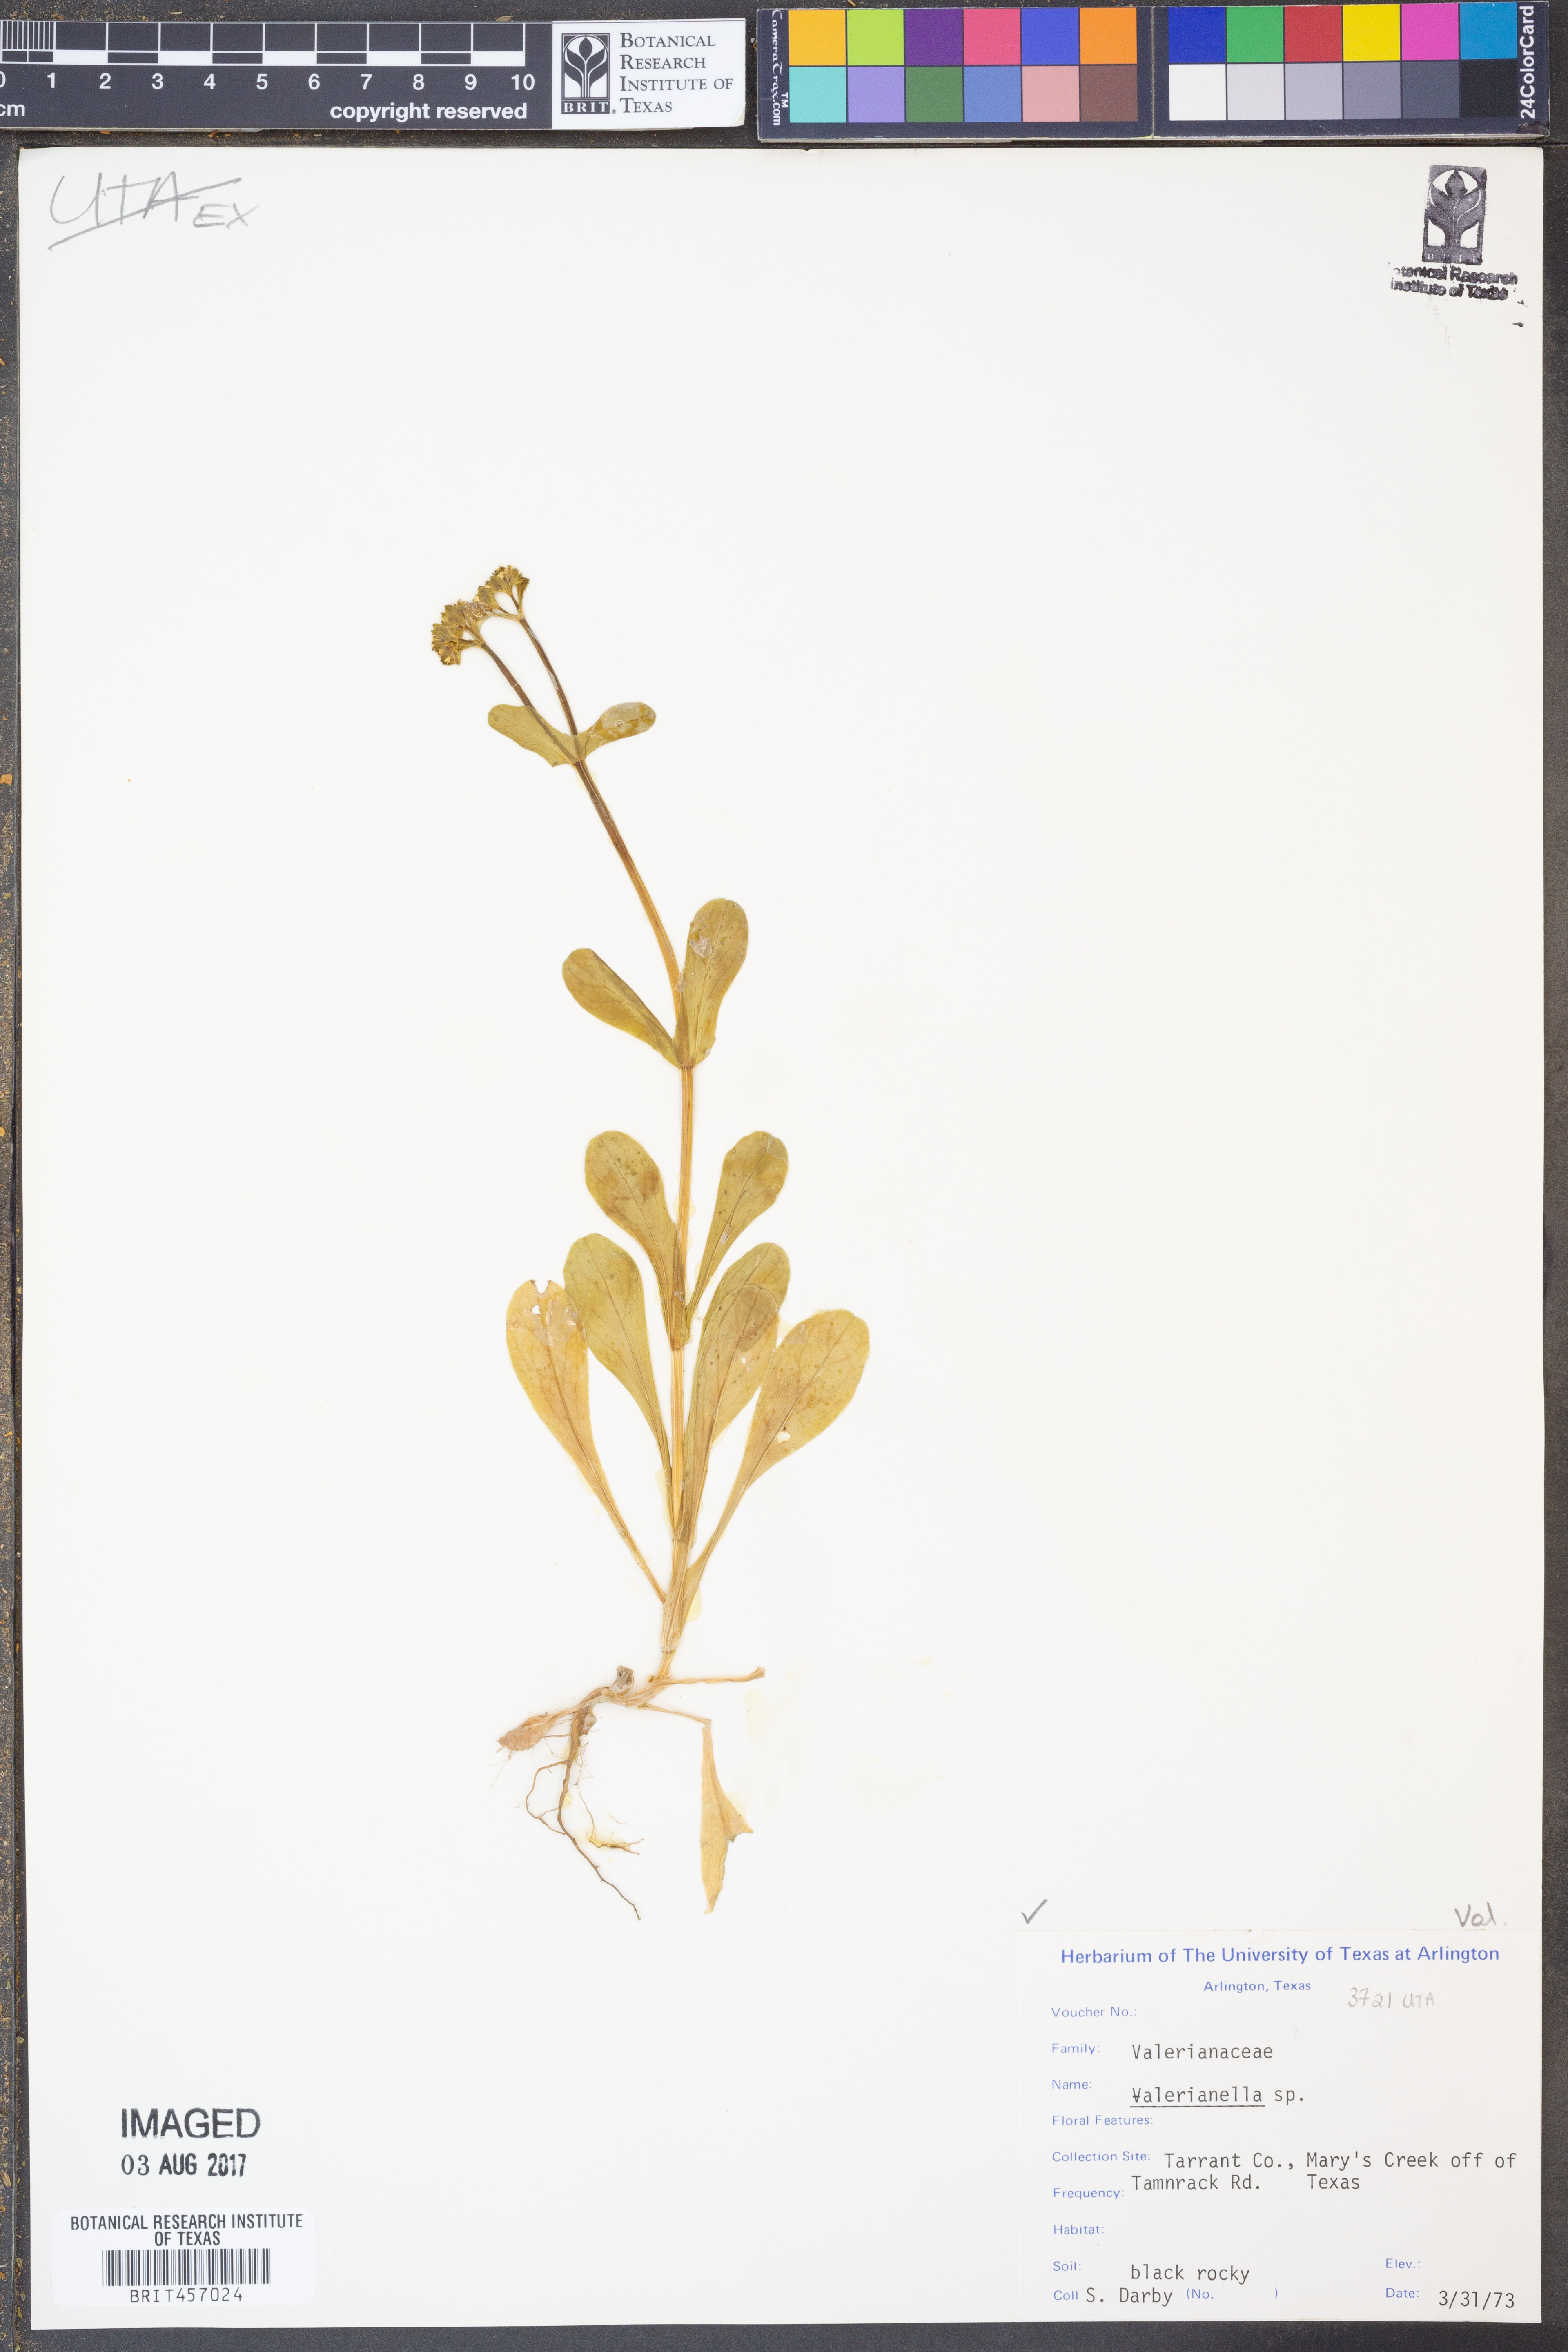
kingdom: Plantae
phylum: Tracheophyta
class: Magnoliopsida
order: Dipsacales
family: Caprifoliaceae
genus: Valerianella
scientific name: Valerianella
